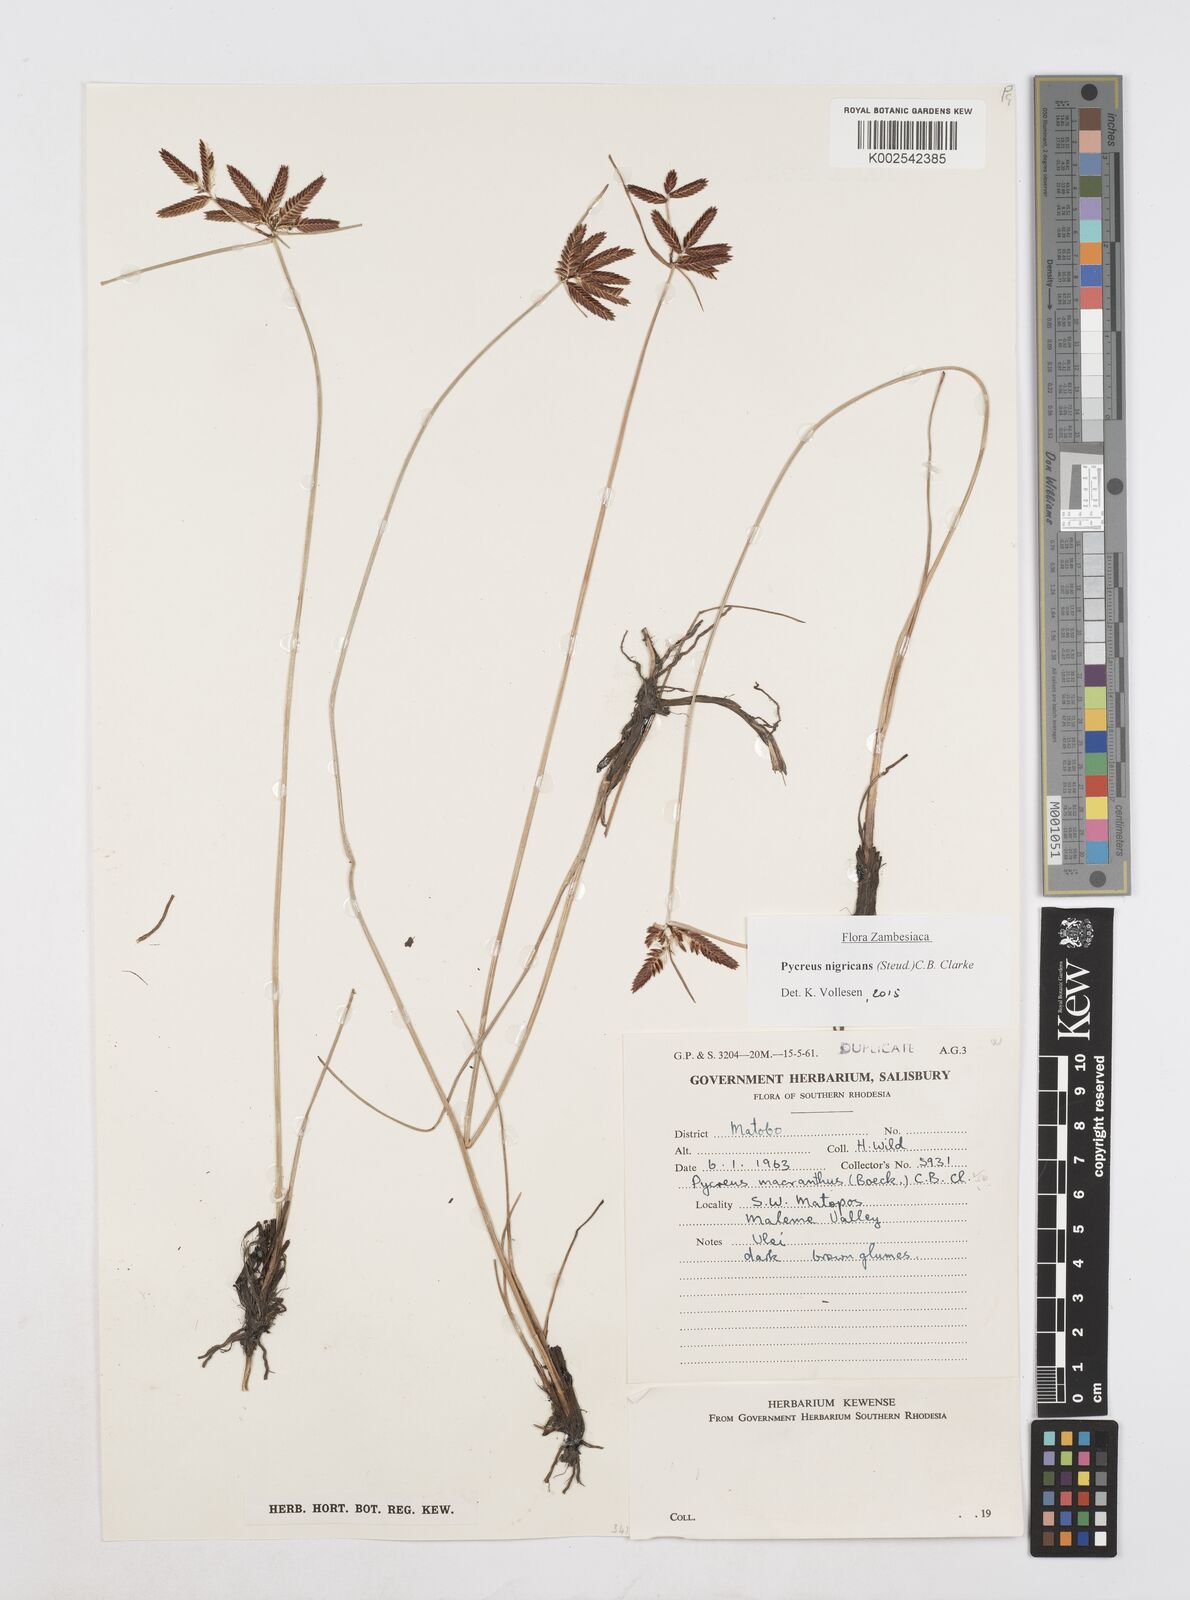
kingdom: Plantae
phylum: Tracheophyta
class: Liliopsida
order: Poales
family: Cyperaceae
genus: Cyperus
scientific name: Cyperus nigricans
